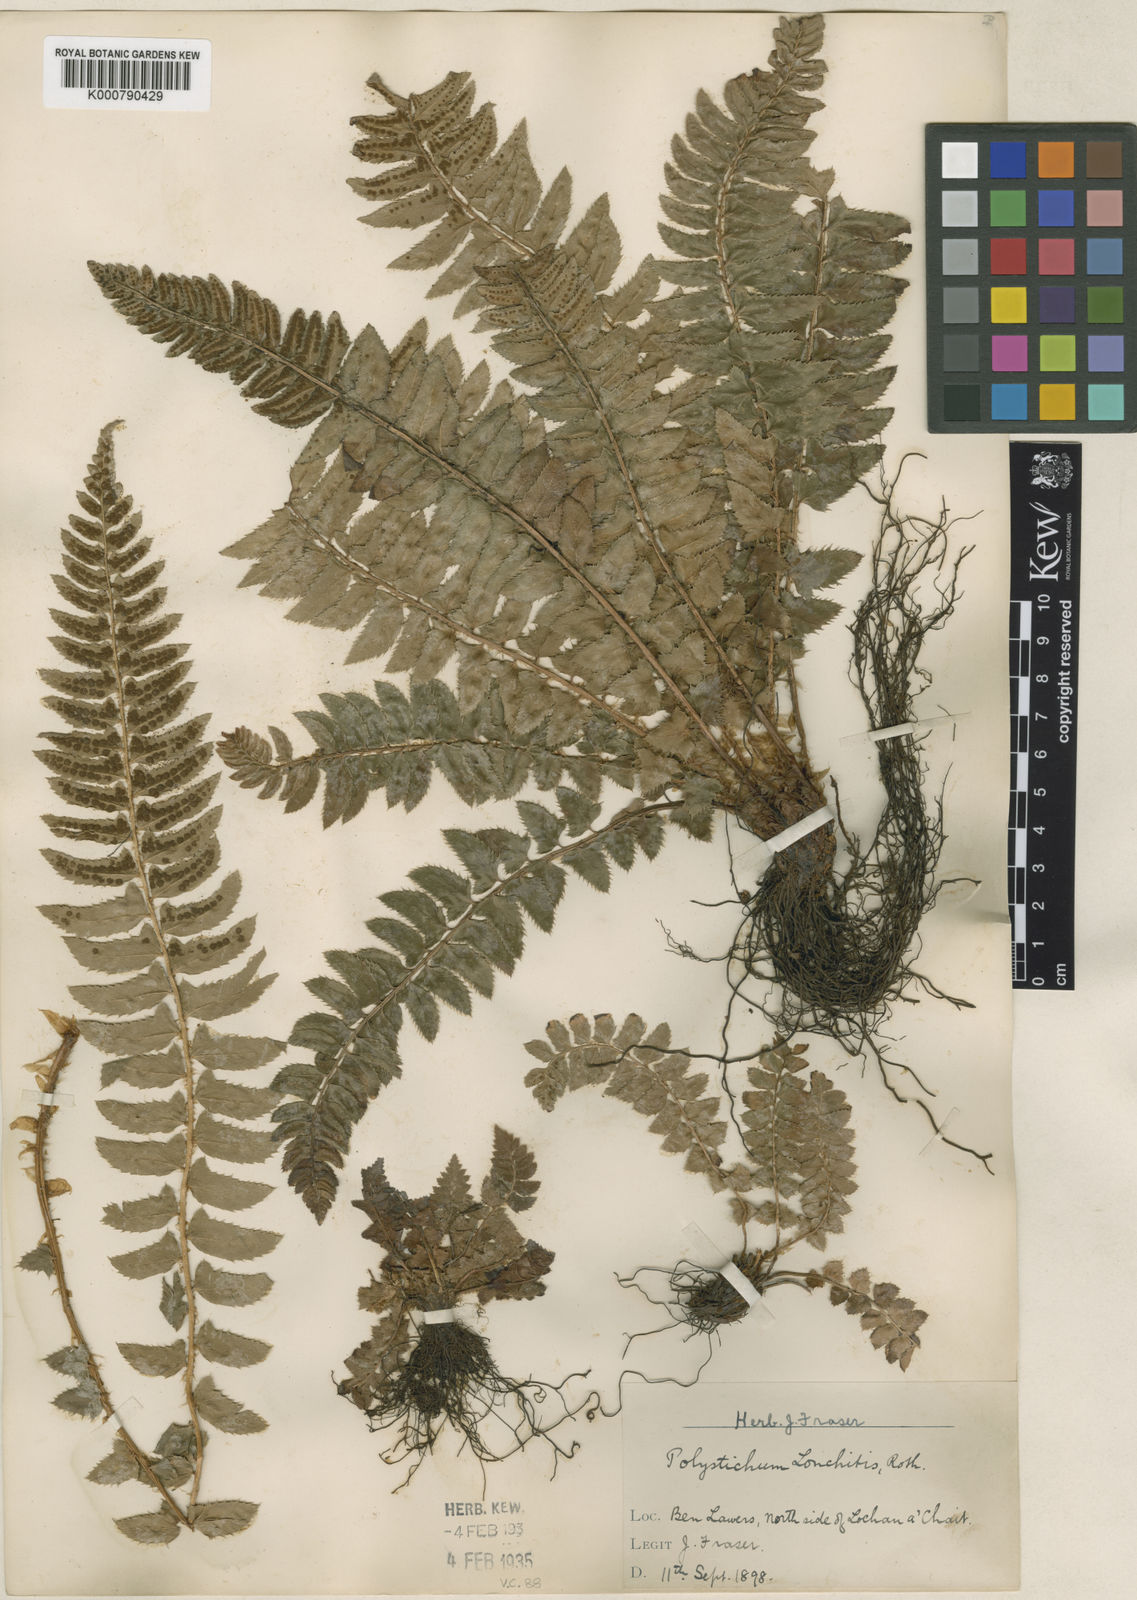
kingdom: Plantae
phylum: Tracheophyta
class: Polypodiopsida
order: Polypodiales
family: Dryopteridaceae
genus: Polystichum
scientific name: Polystichum
